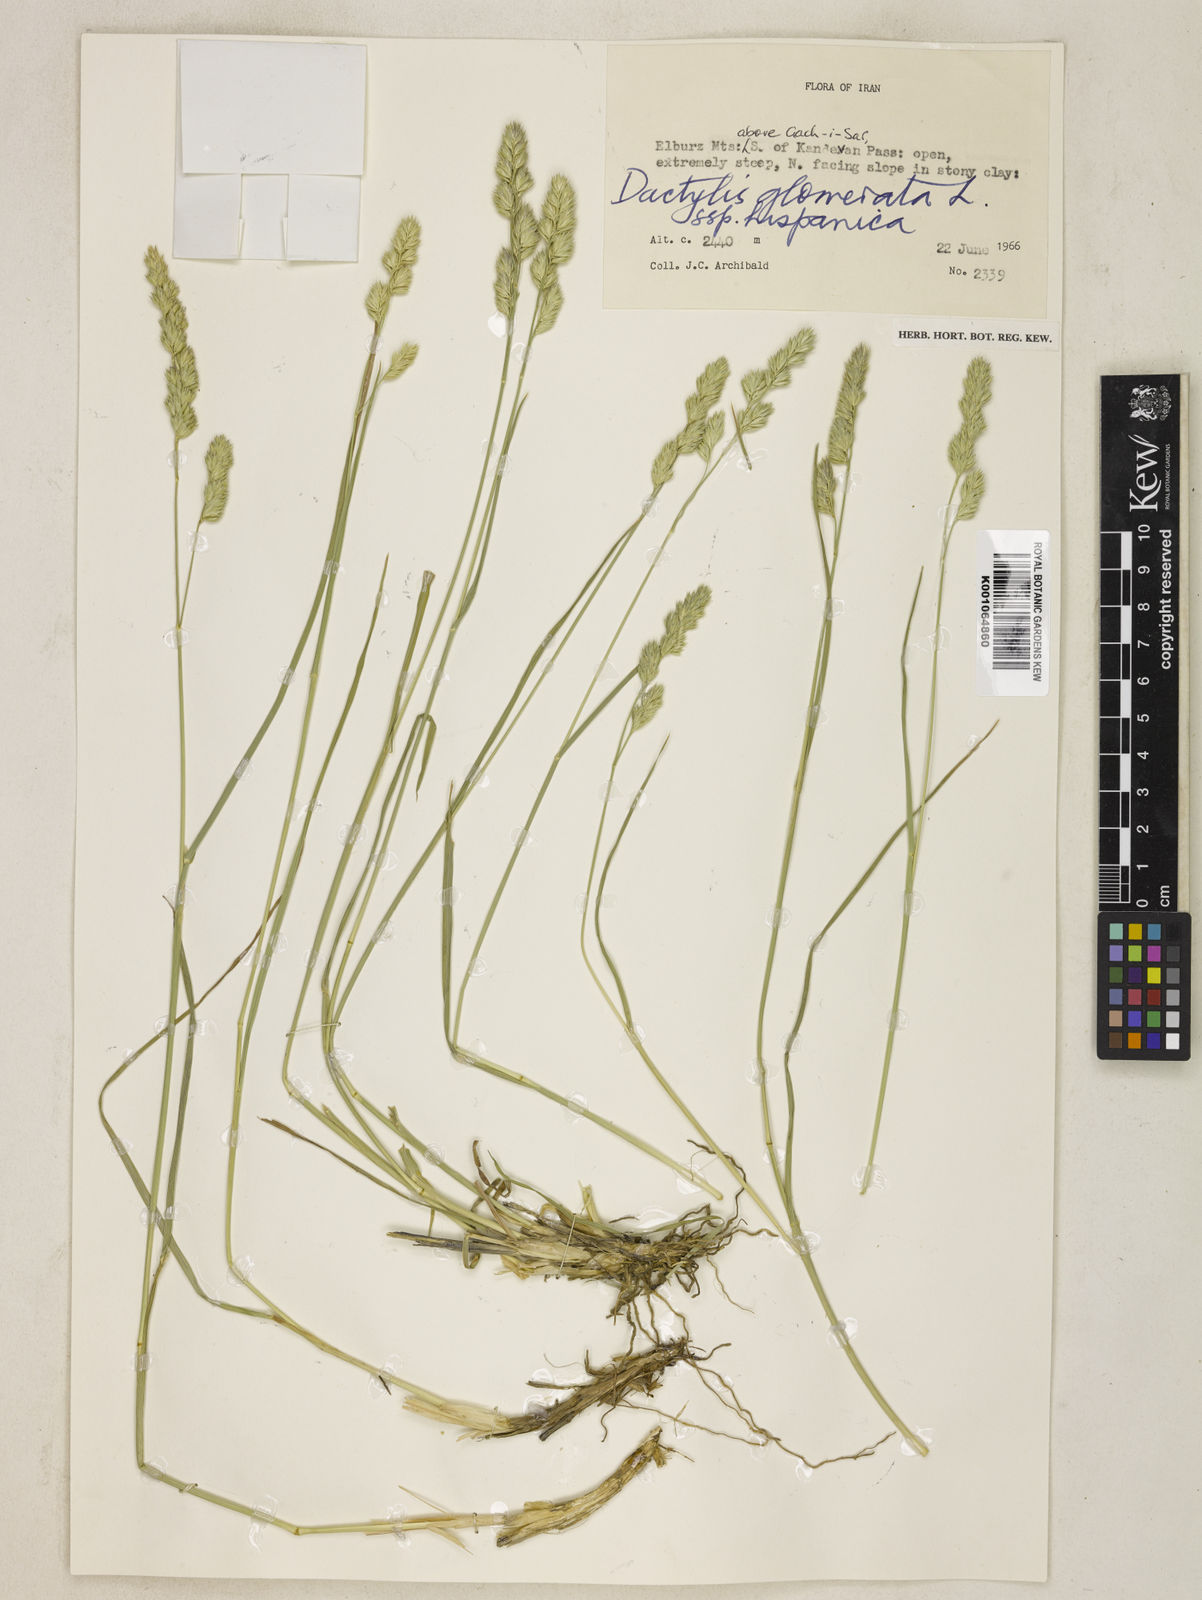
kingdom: Plantae
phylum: Tracheophyta
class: Liliopsida
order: Poales
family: Poaceae
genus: Dactylis
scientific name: Dactylis glomerata
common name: Orchardgrass
